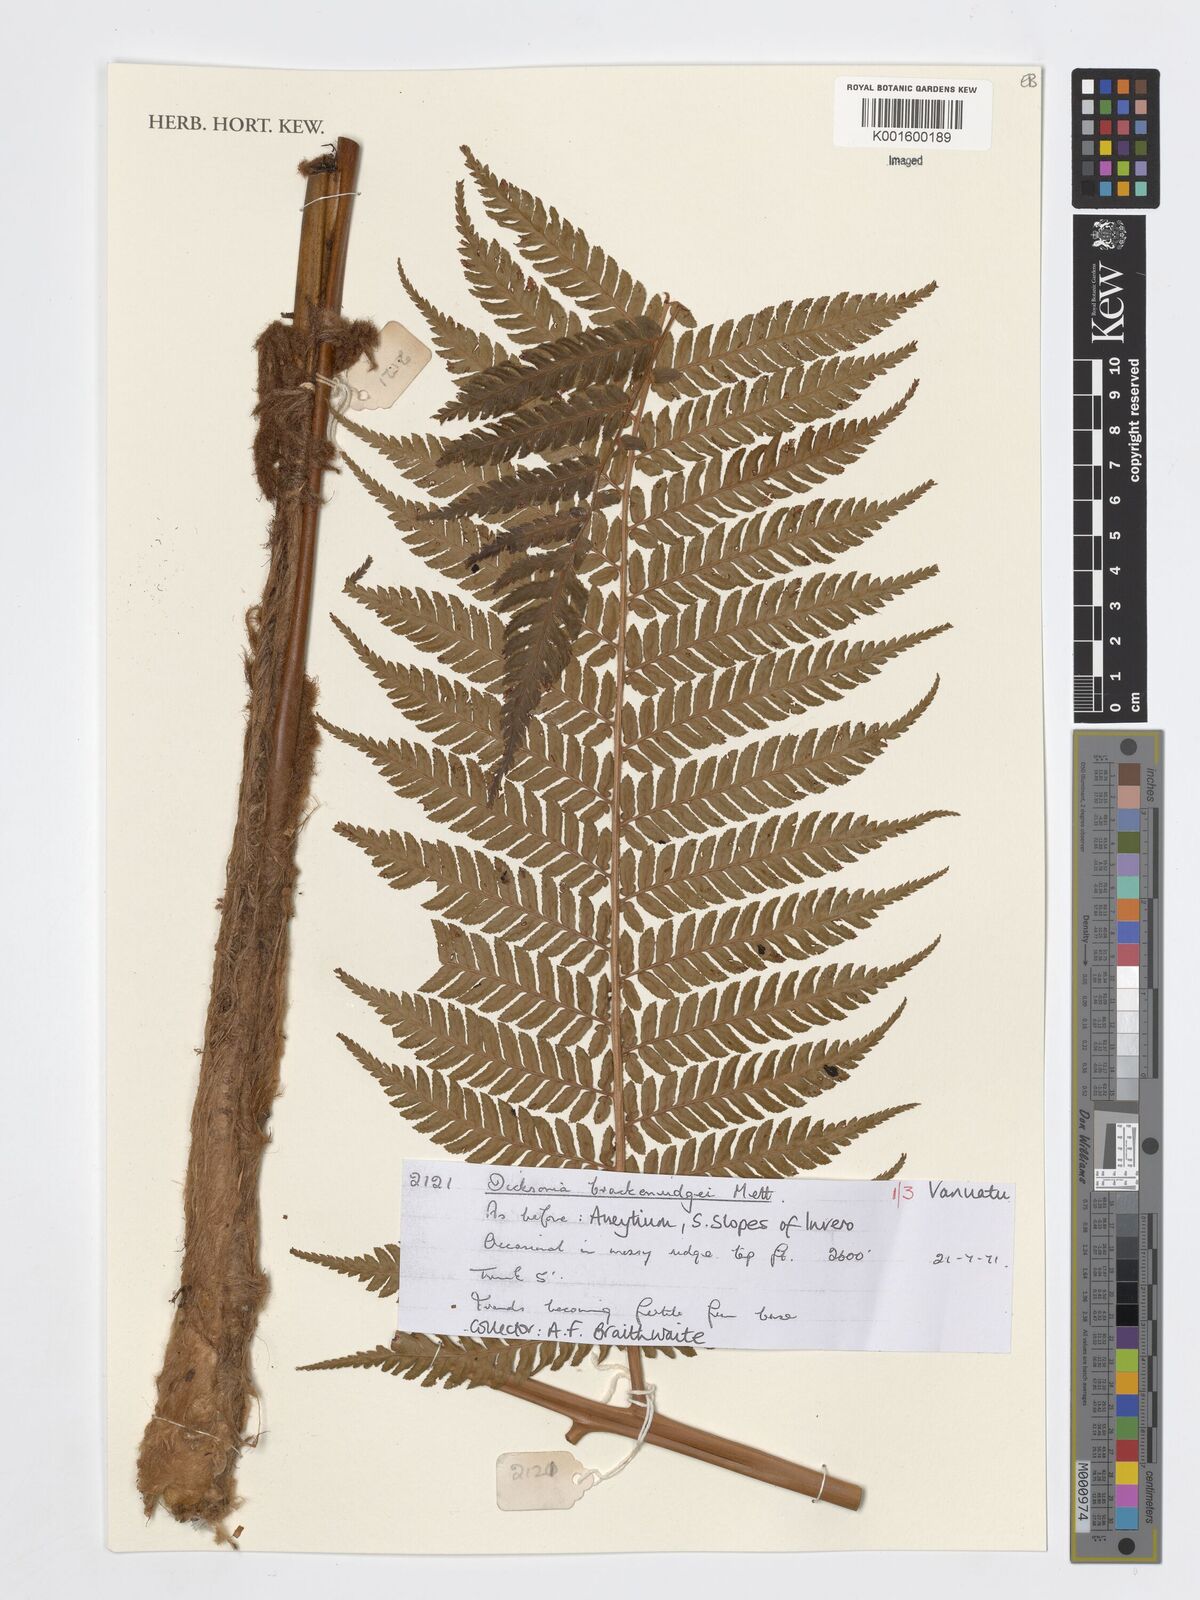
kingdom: Plantae
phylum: Tracheophyta
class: Polypodiopsida
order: Cyatheales
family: Dicksoniaceae
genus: Dicksonia
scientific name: Dicksonia brackenridgei
